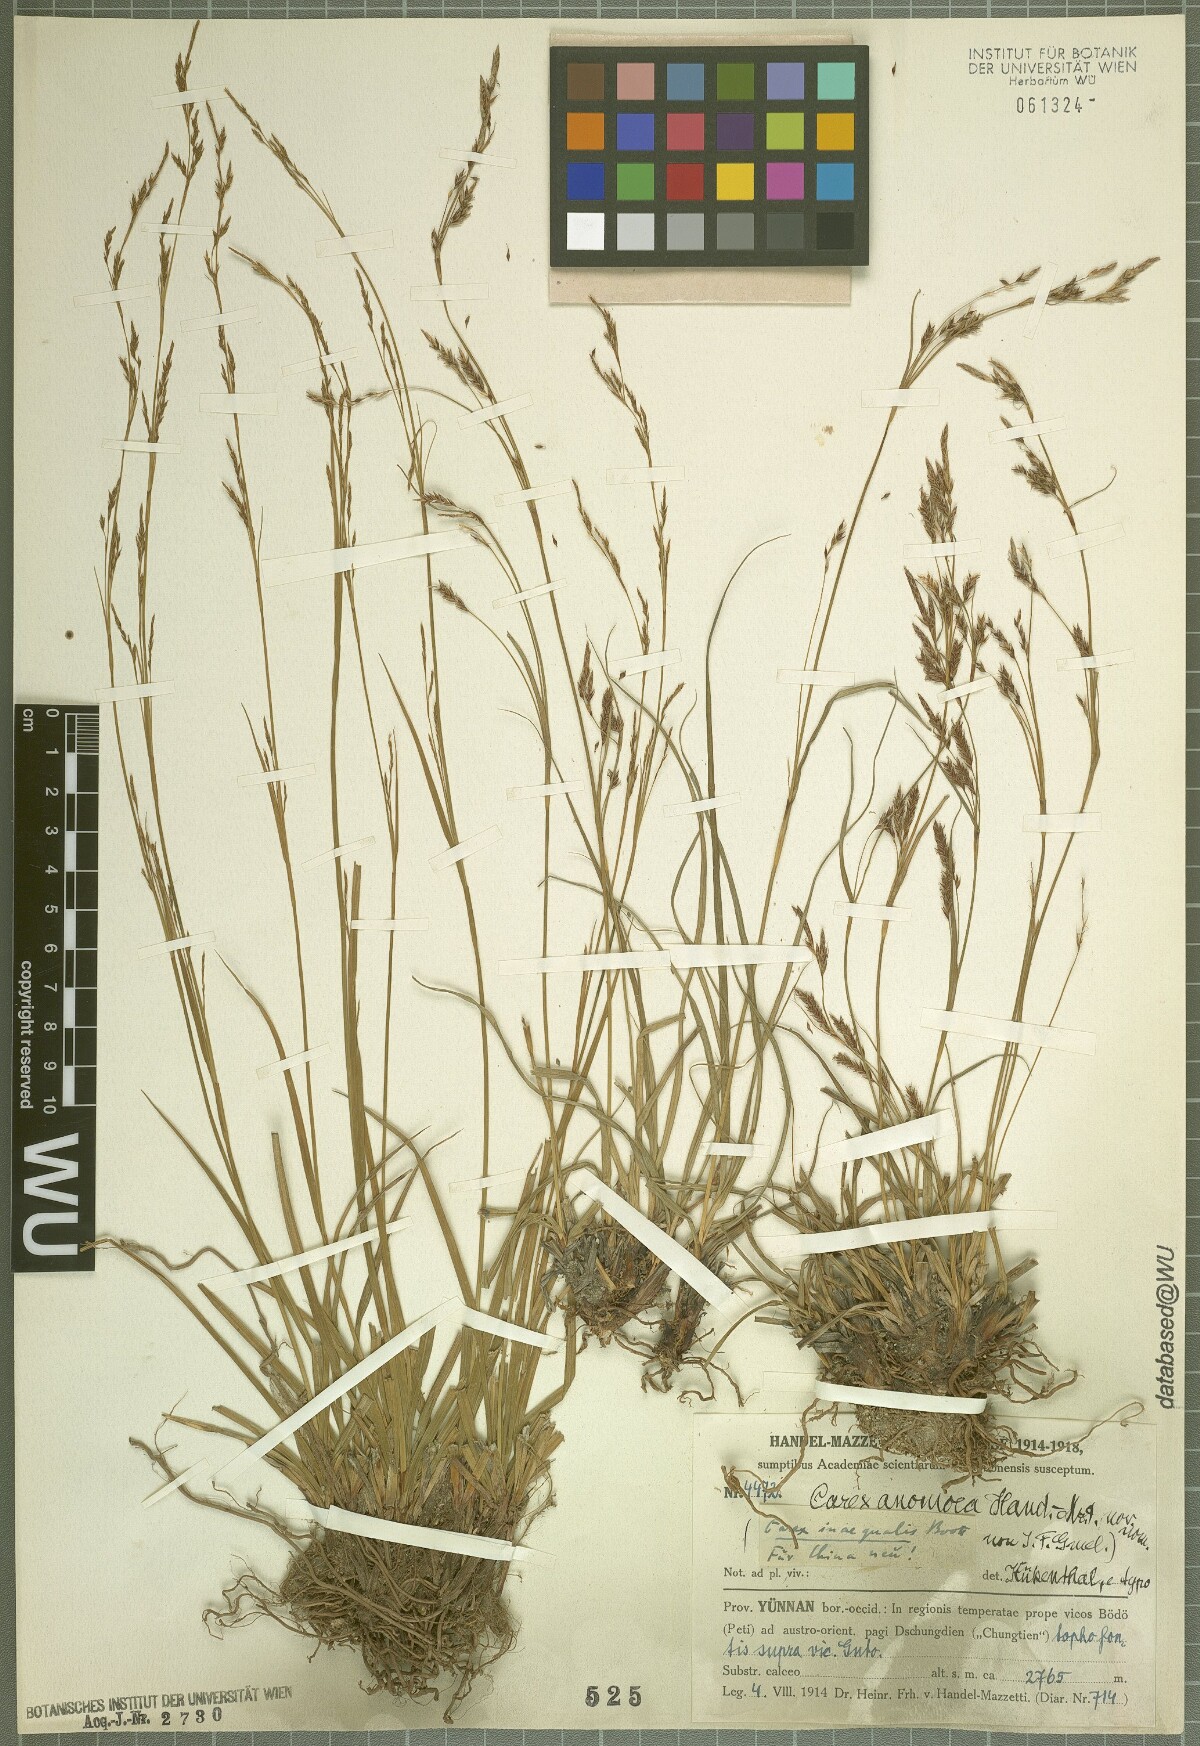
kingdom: Plantae
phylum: Tracheophyta
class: Liliopsida
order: Poales
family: Cyperaceae
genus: Carex
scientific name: Carex anomoea
